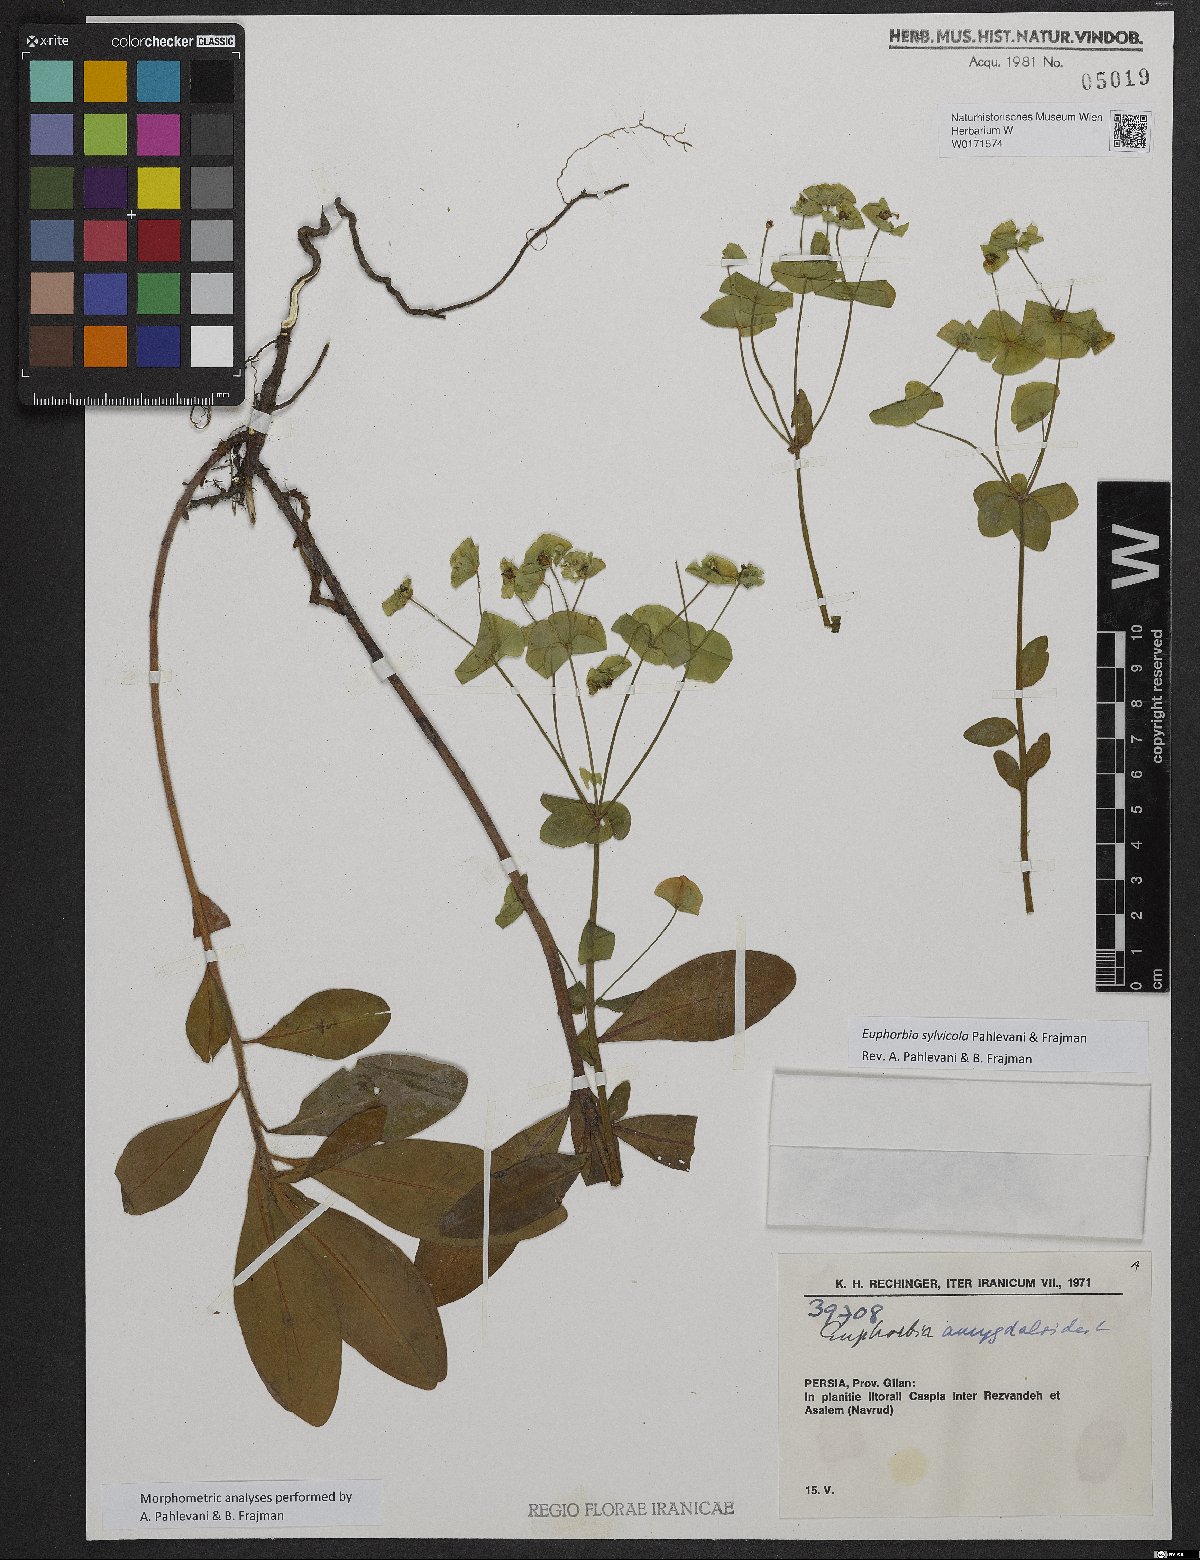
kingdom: Plantae
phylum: Tracheophyta
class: Magnoliopsida
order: Malpighiales
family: Euphorbiaceae
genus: Euphorbia
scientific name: Euphorbia juttae
